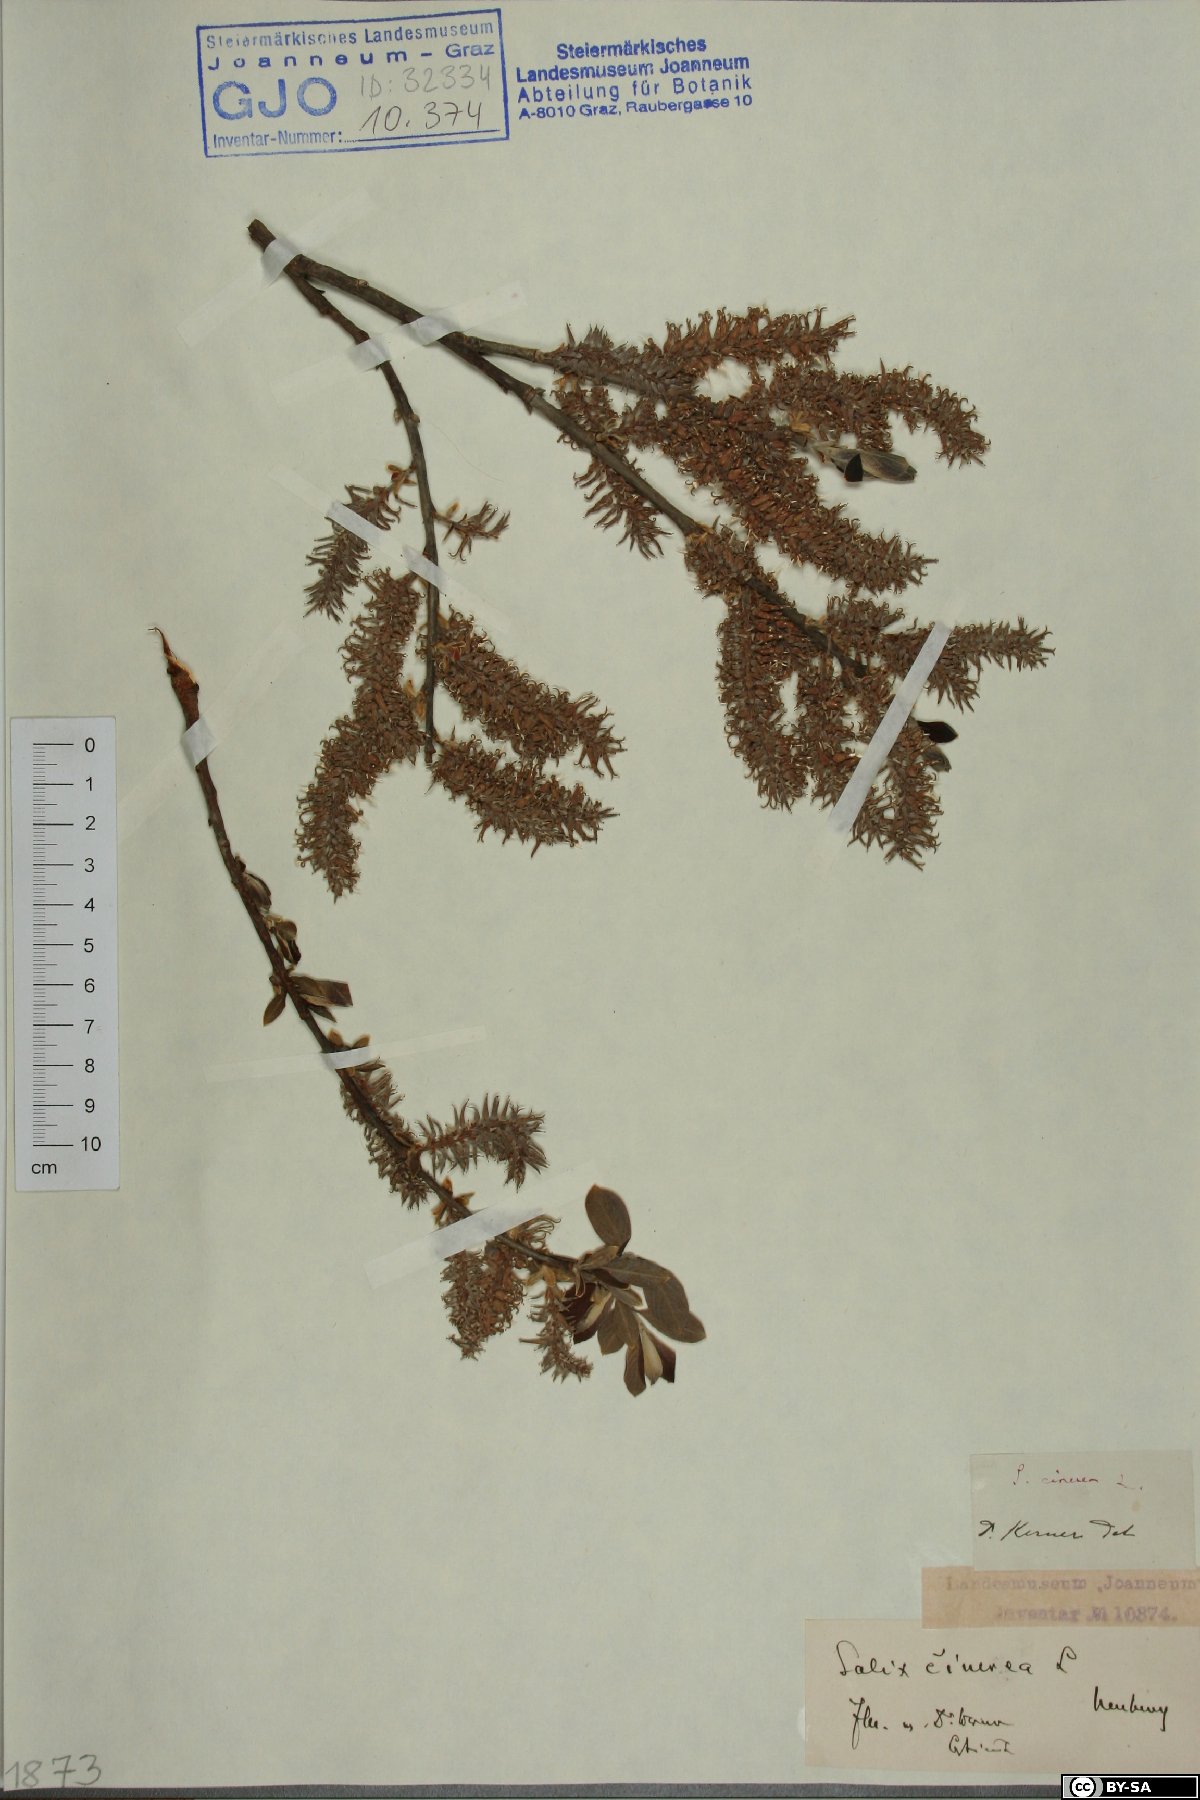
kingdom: Plantae
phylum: Tracheophyta
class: Magnoliopsida
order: Malpighiales
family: Salicaceae
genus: Salix
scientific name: Salix cinerea
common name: Common sallow
